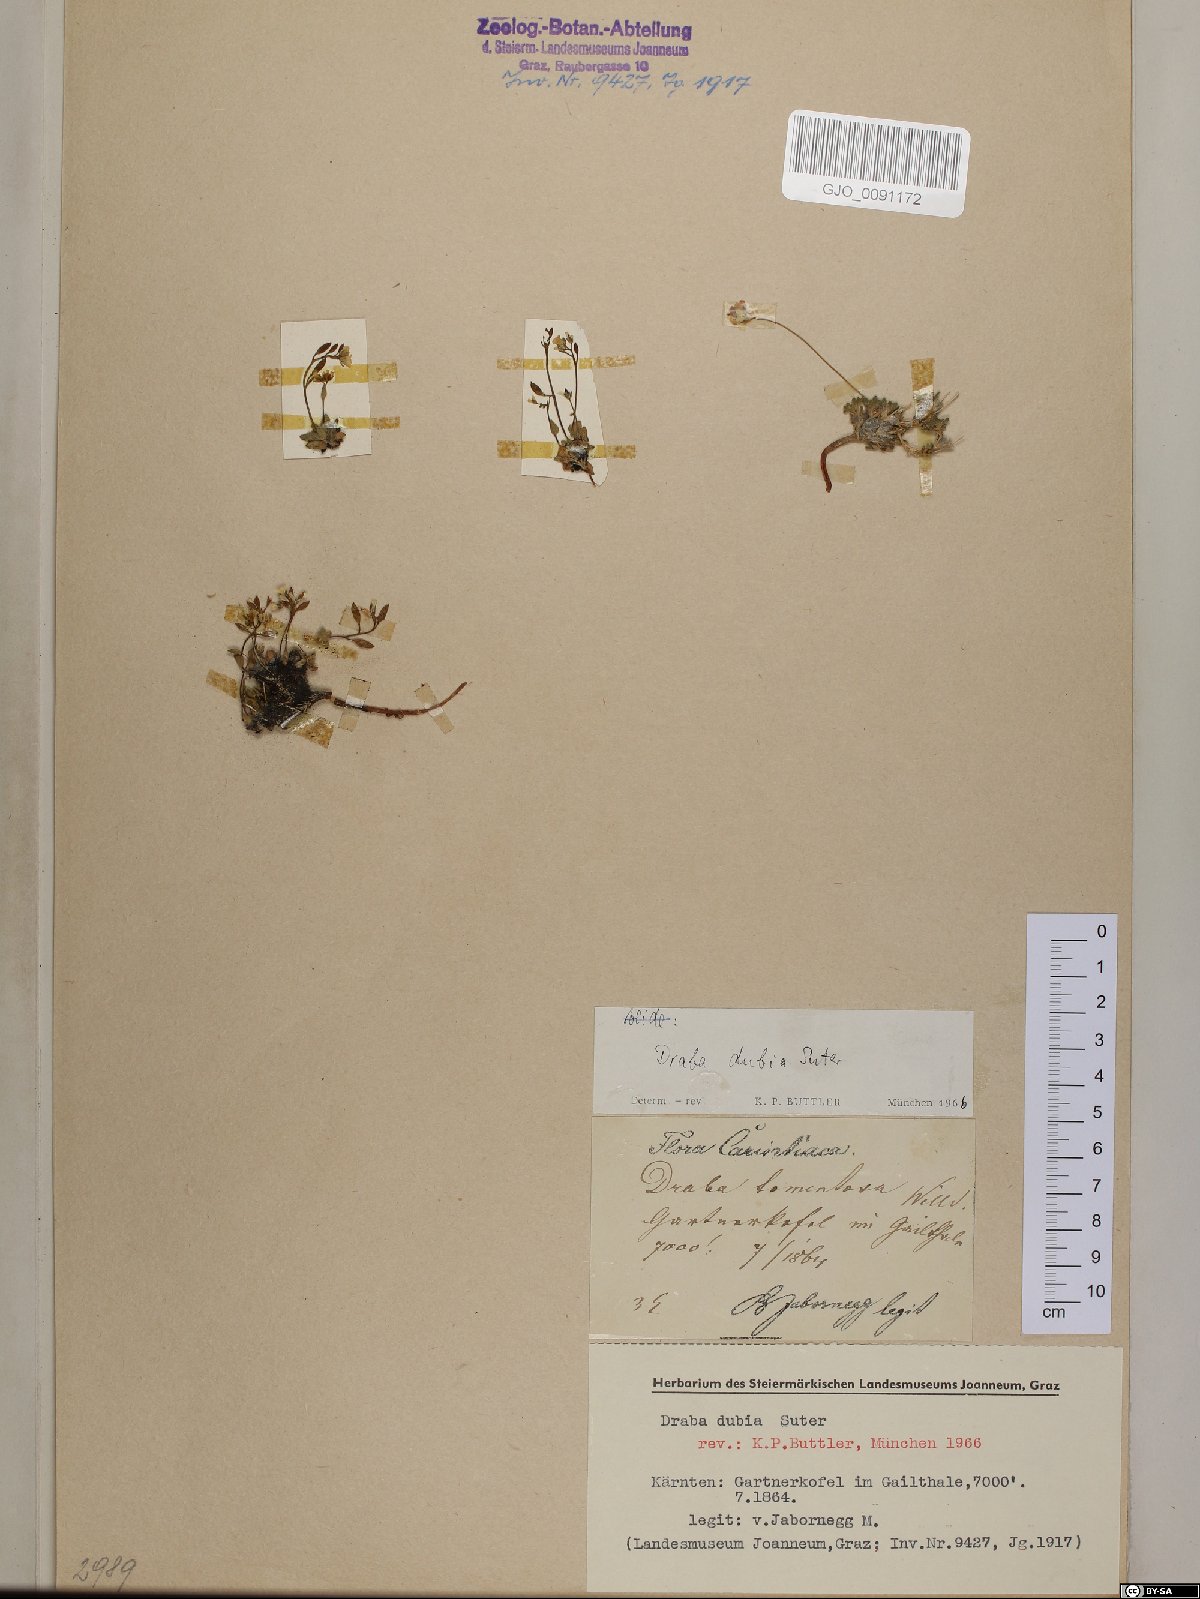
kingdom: Plantae
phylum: Tracheophyta
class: Magnoliopsida
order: Brassicales
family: Brassicaceae
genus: Draba
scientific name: Draba dubia
